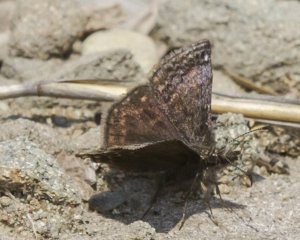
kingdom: Animalia
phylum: Arthropoda
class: Insecta
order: Lepidoptera
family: Hesperiidae
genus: Erynnis
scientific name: Erynnis icelus
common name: Dreamy Duskywing
